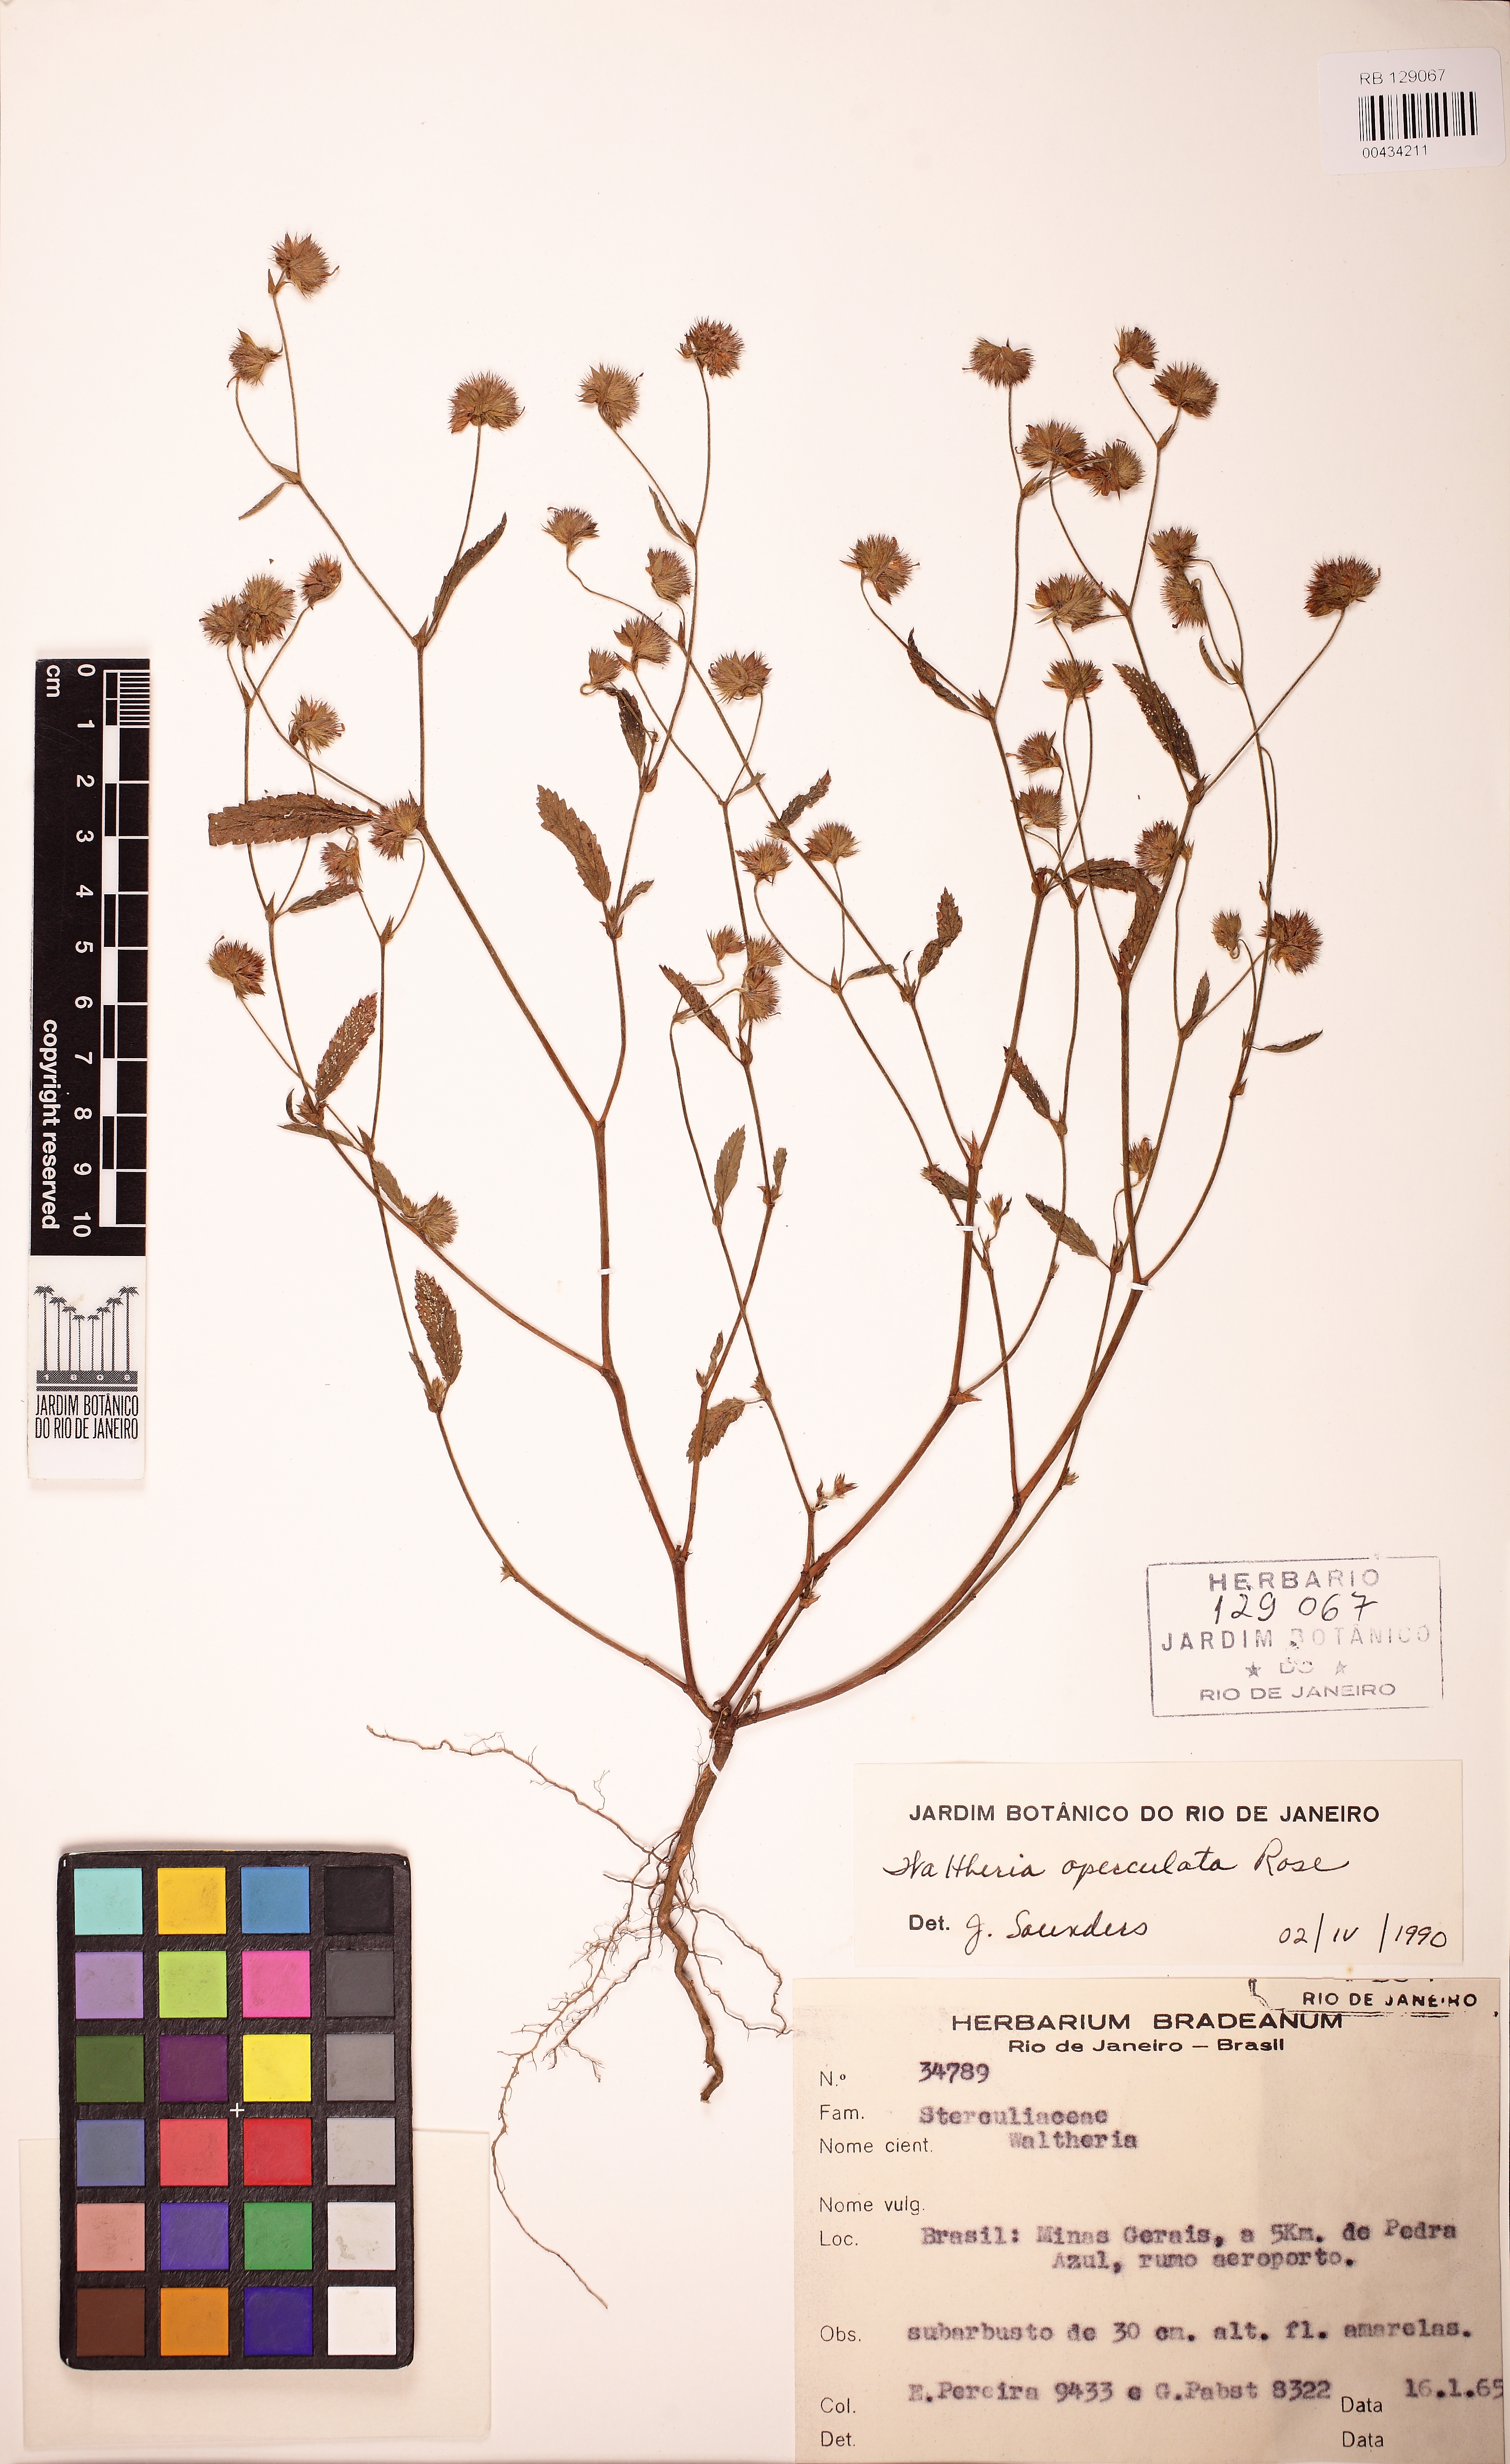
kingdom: Plantae
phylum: Tracheophyta
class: Magnoliopsida
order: Malvales
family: Malvaceae
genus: Waltheria
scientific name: Waltheria operculata
